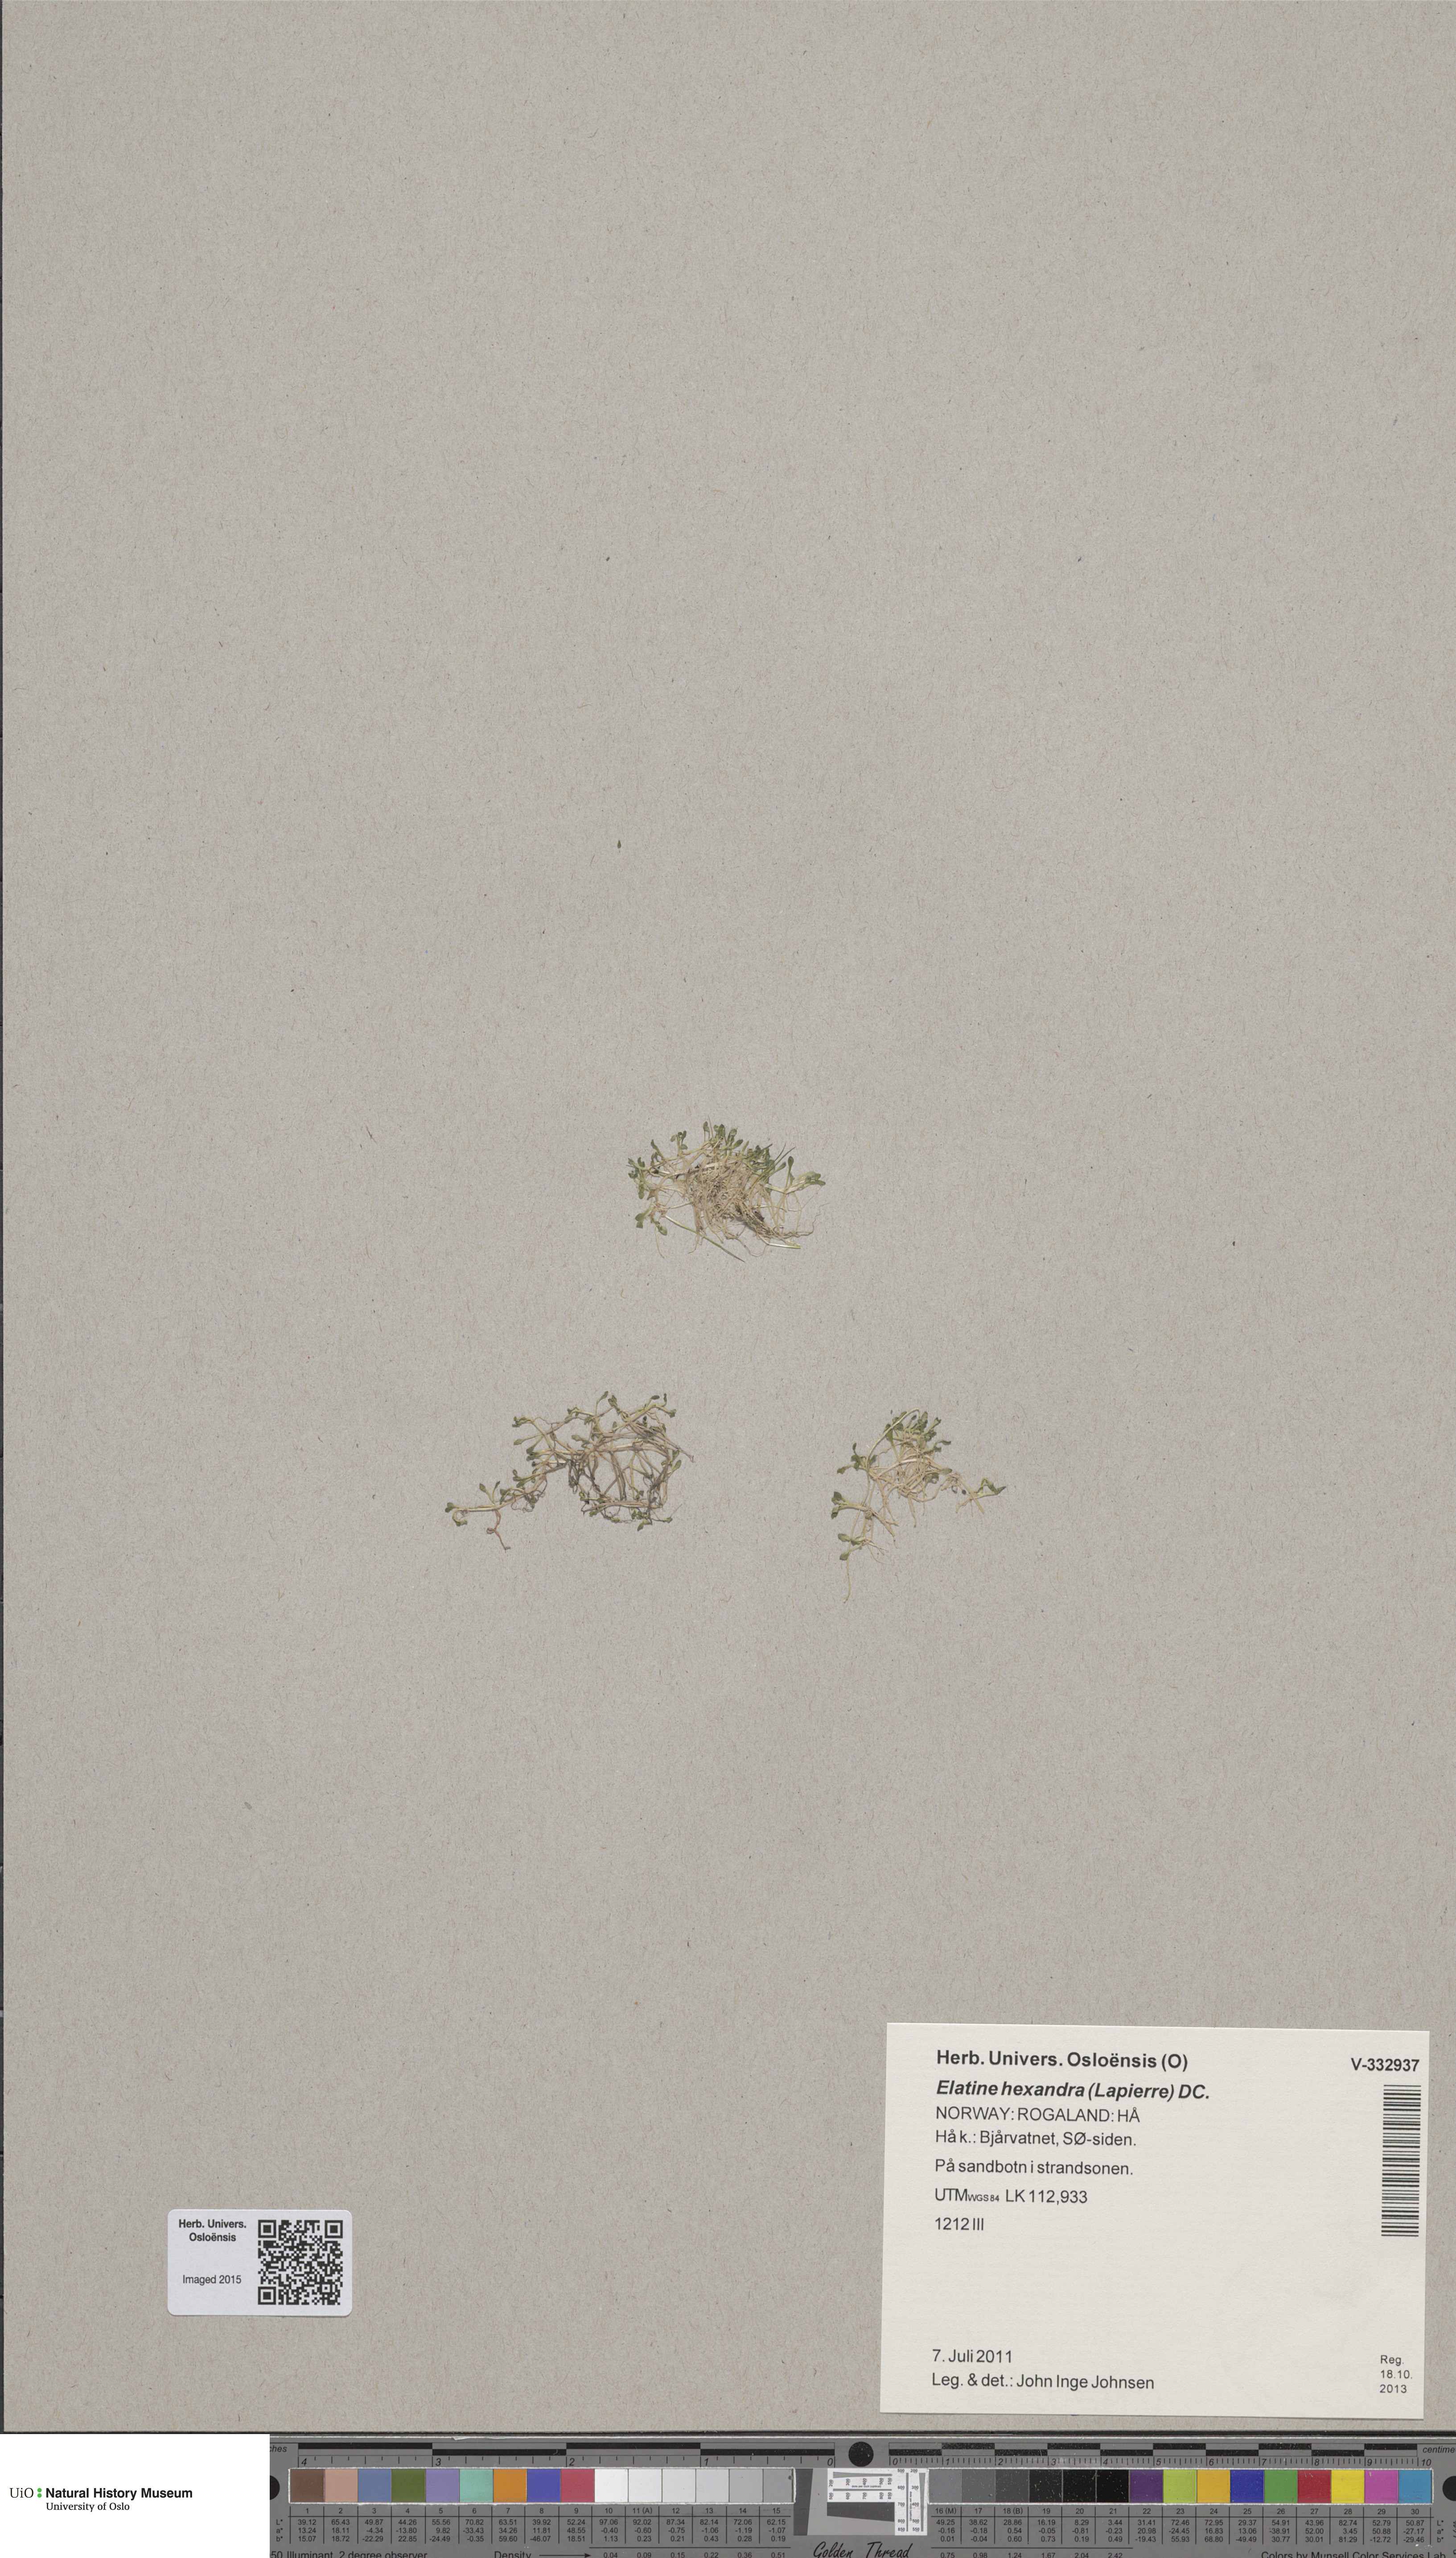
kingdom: Plantae
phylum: Tracheophyta
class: Magnoliopsida
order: Malpighiales
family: Elatinaceae
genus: Elatine
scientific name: Elatine hydropiper
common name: Eight-stamened waterwort
